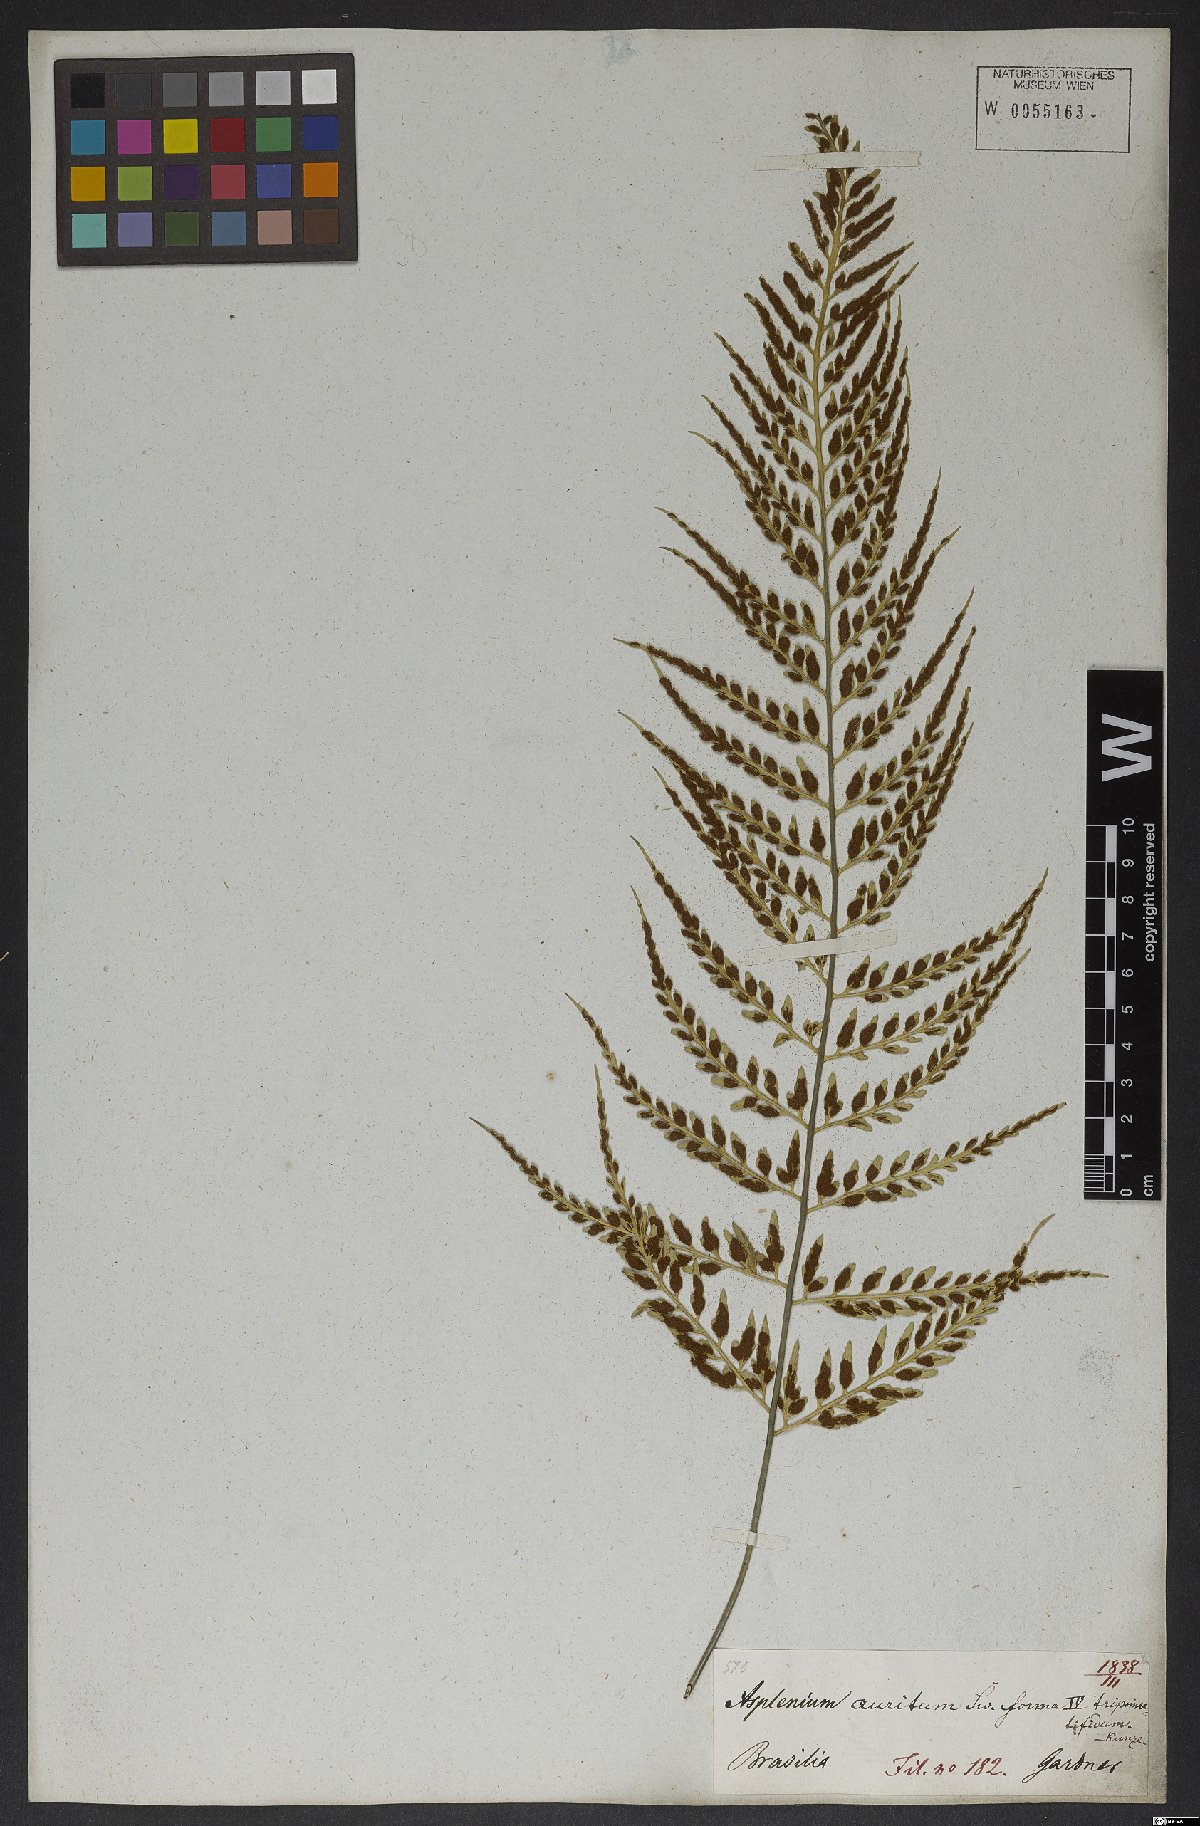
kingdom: Plantae
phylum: Tracheophyta
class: Polypodiopsida
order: Polypodiales
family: Aspleniaceae
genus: Asplenium
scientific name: Asplenium sulcatum
